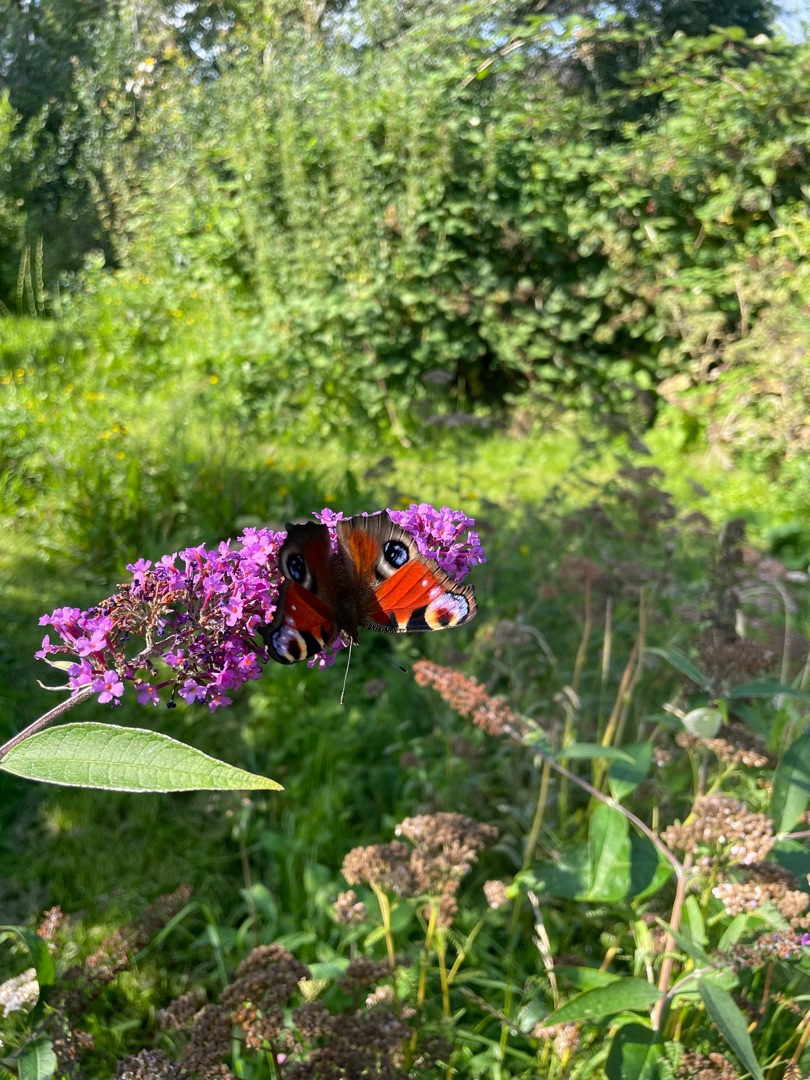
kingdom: Animalia
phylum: Arthropoda
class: Insecta
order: Lepidoptera
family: Nymphalidae
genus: Aglais
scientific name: Aglais io
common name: Dagpåfugleøje
